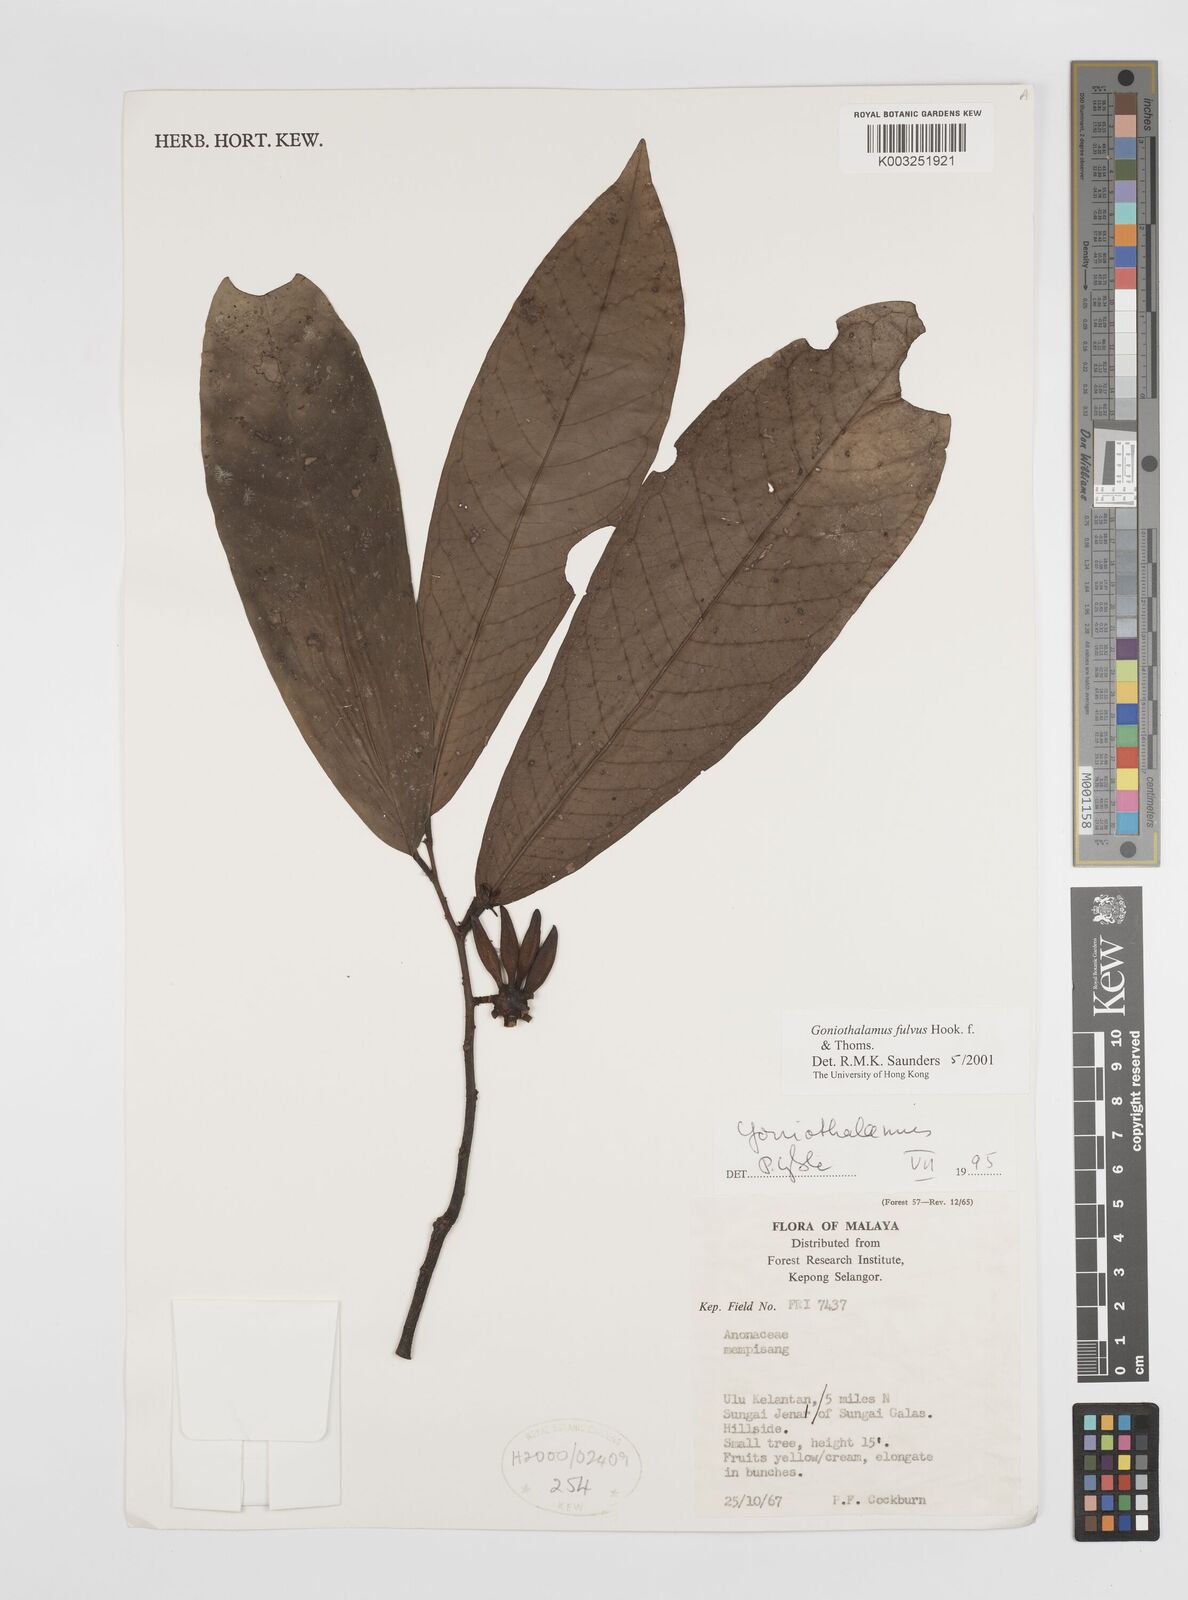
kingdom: Plantae
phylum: Tracheophyta
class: Magnoliopsida
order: Magnoliales
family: Annonaceae
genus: Goniothalamus
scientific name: Goniothalamus fulvus
